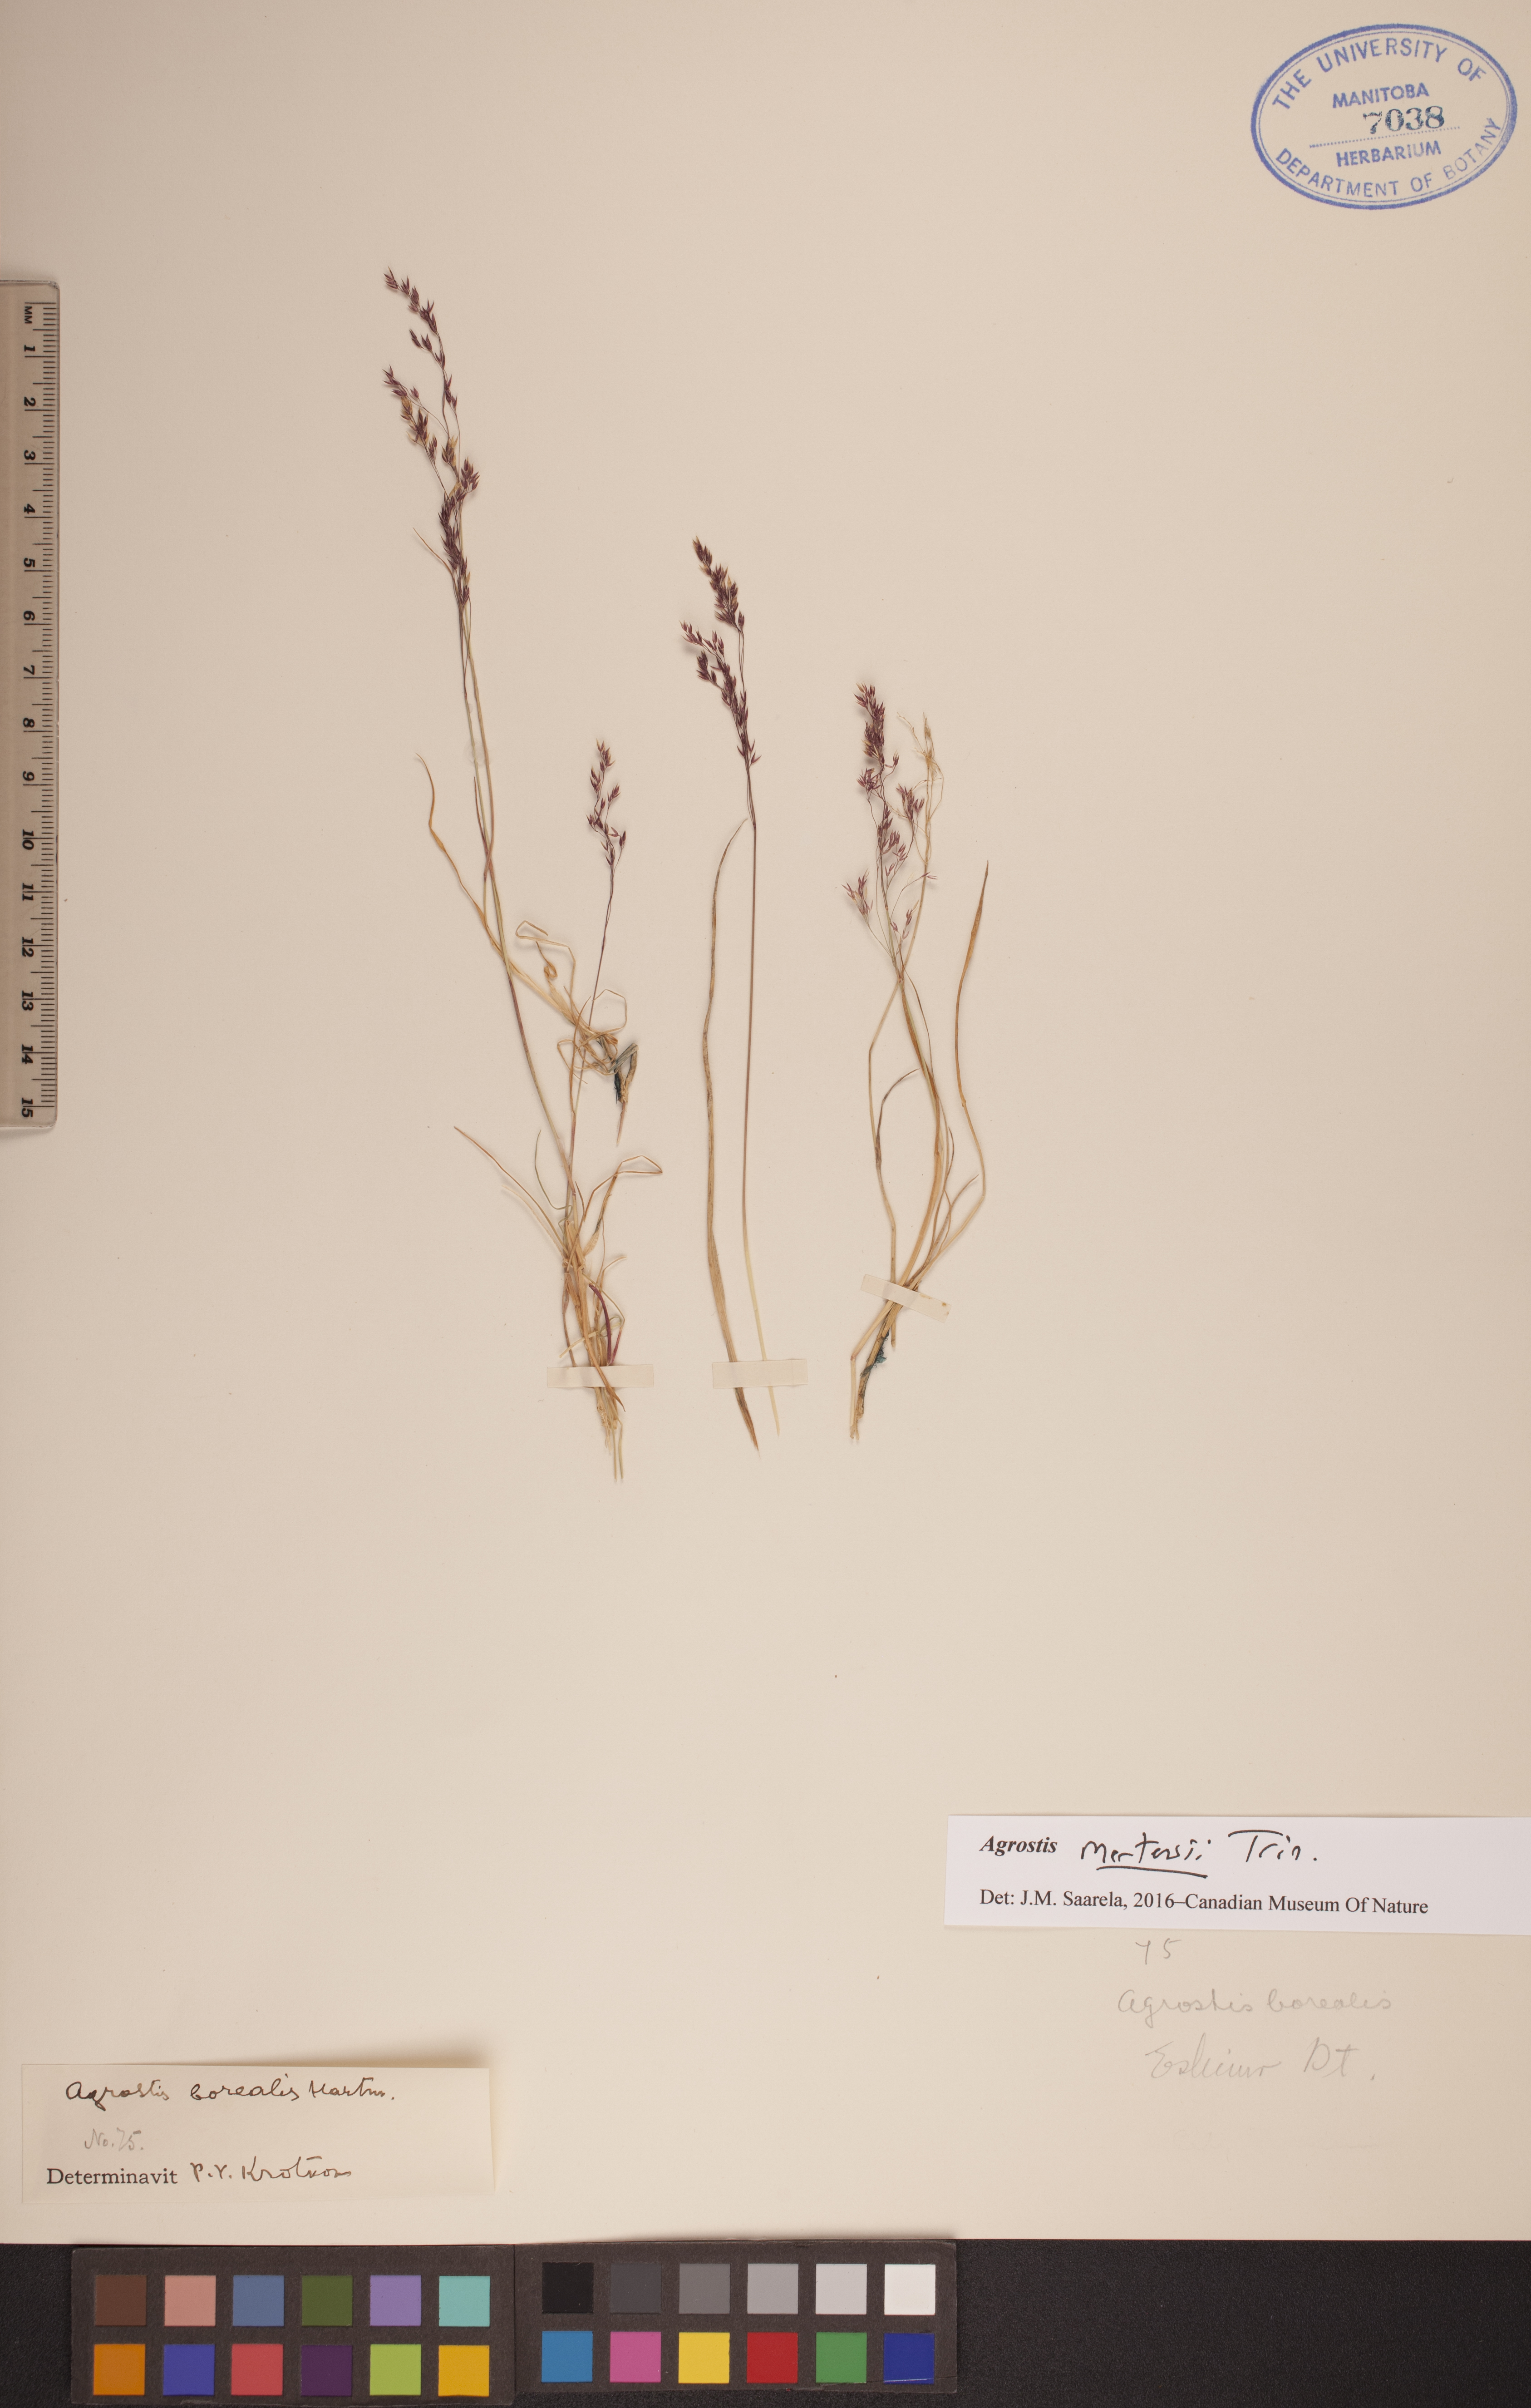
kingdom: Plantae
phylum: Tracheophyta
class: Liliopsida
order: Poales
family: Poaceae
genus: Agrostis
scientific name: Agrostis mertensii
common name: Northern bent
